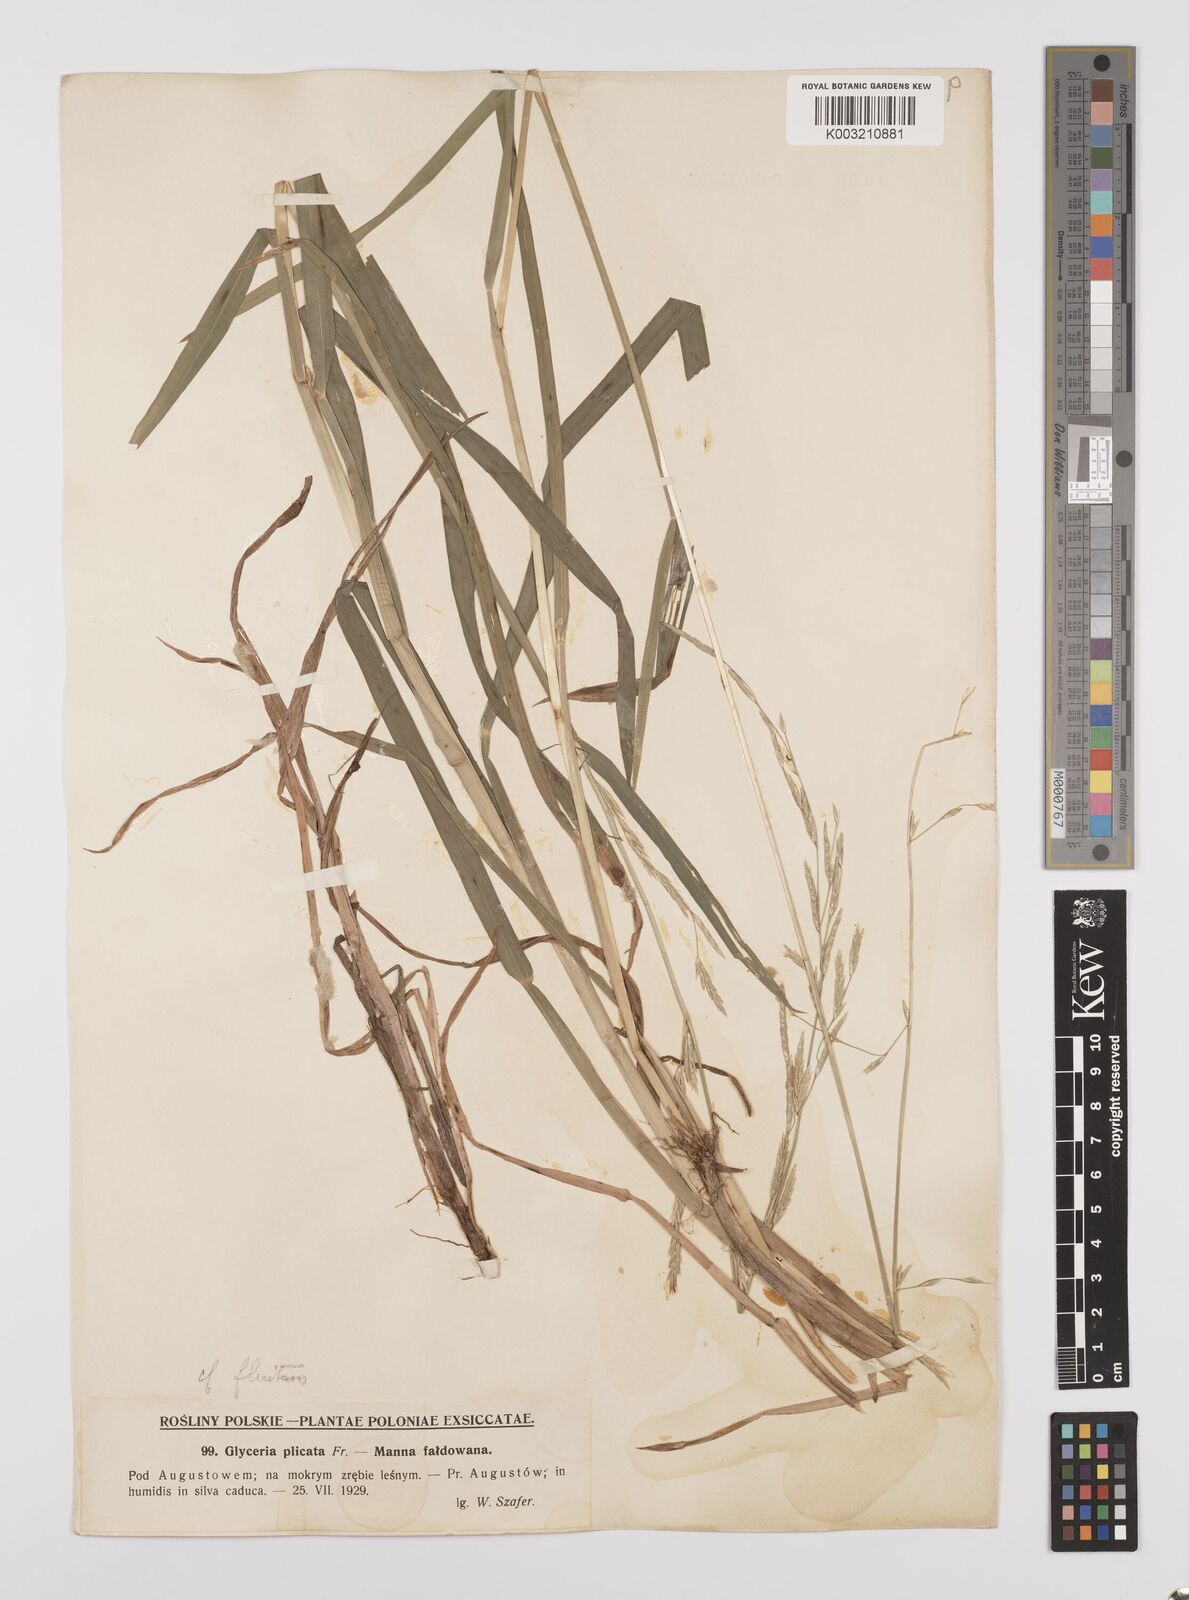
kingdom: Plantae
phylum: Tracheophyta
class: Liliopsida
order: Poales
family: Poaceae
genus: Glyceria
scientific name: Glyceria fluitans
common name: Floating sweet-grass
